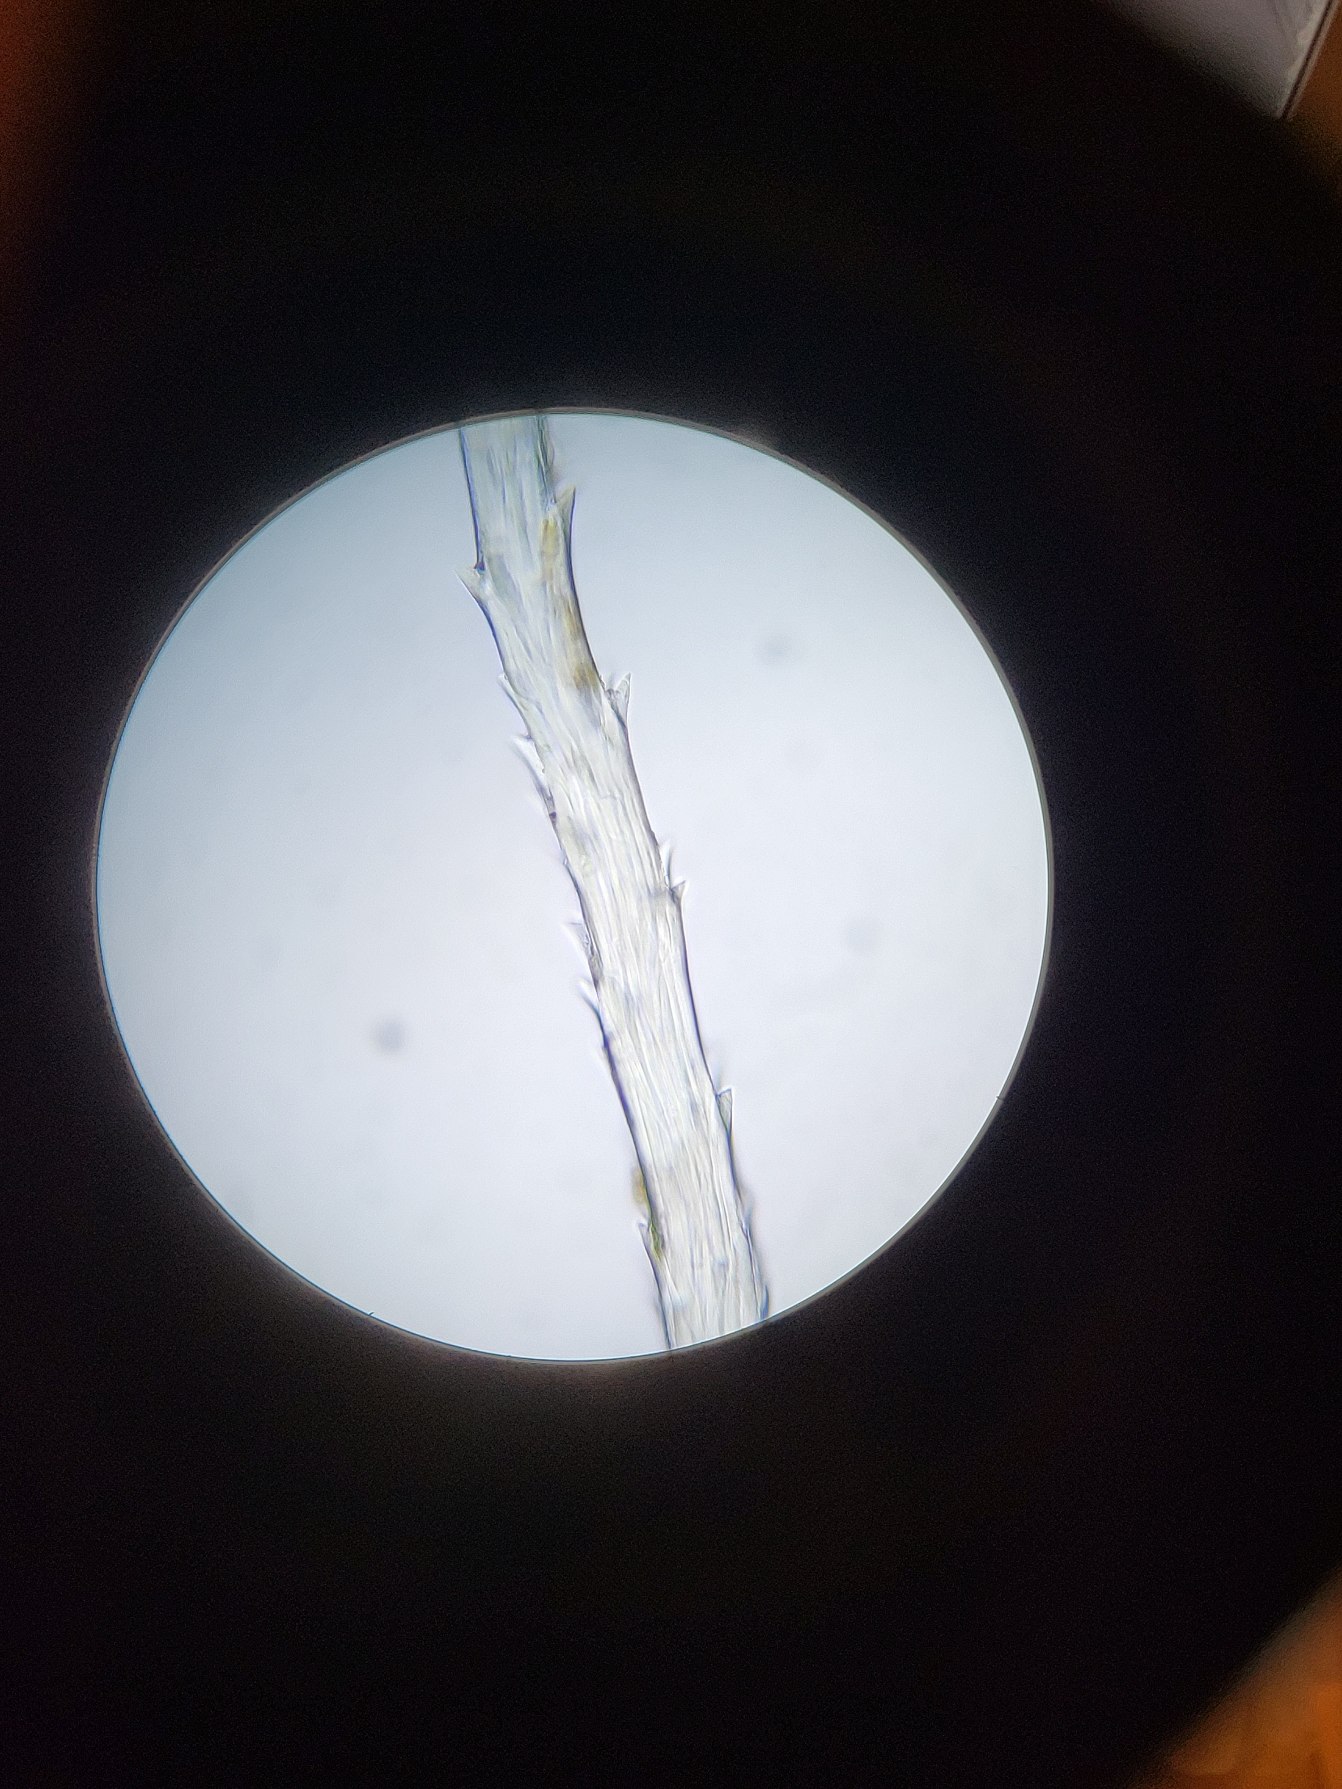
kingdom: Plantae
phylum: Bryophyta
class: Bryopsida
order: Pottiales
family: Pottiaceae
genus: Syntrichia
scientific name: Syntrichia montana
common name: Bjerg-hårstjerne
